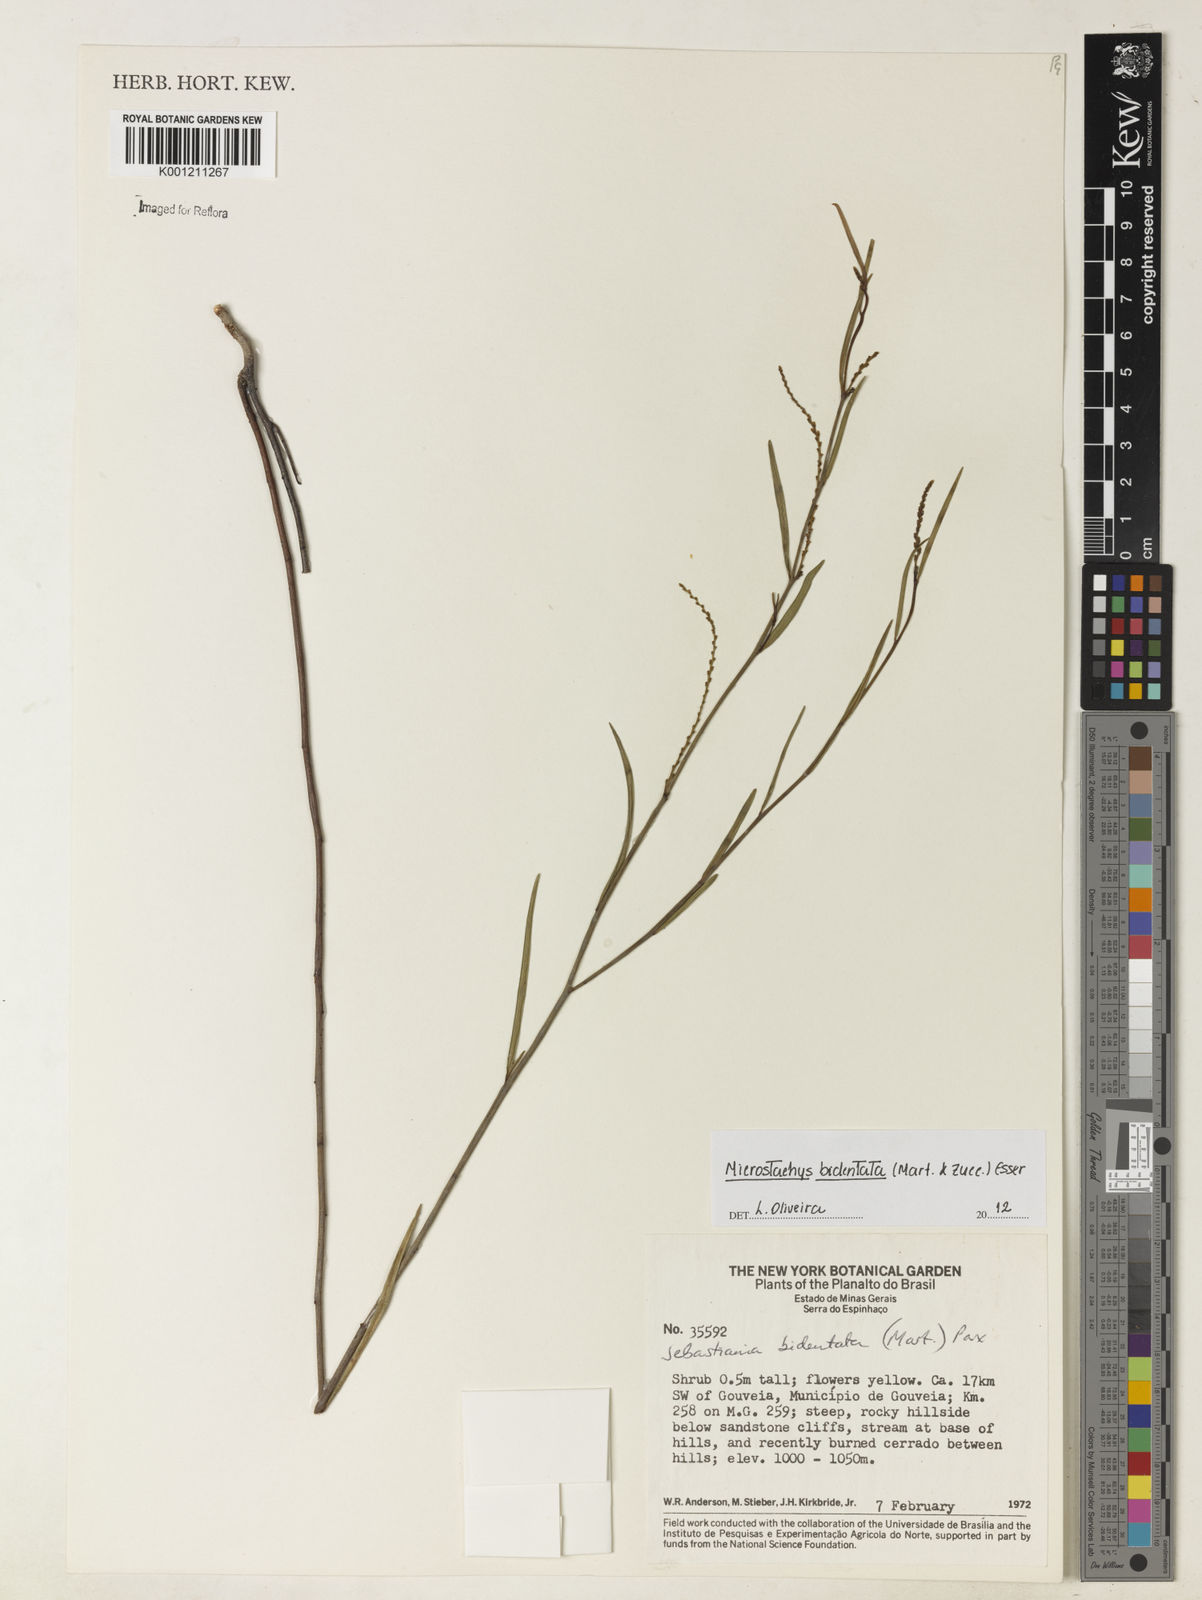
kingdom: Plantae
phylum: Tracheophyta
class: Magnoliopsida
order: Malpighiales
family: Euphorbiaceae
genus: Microstachys
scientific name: Microstachys bidentata
